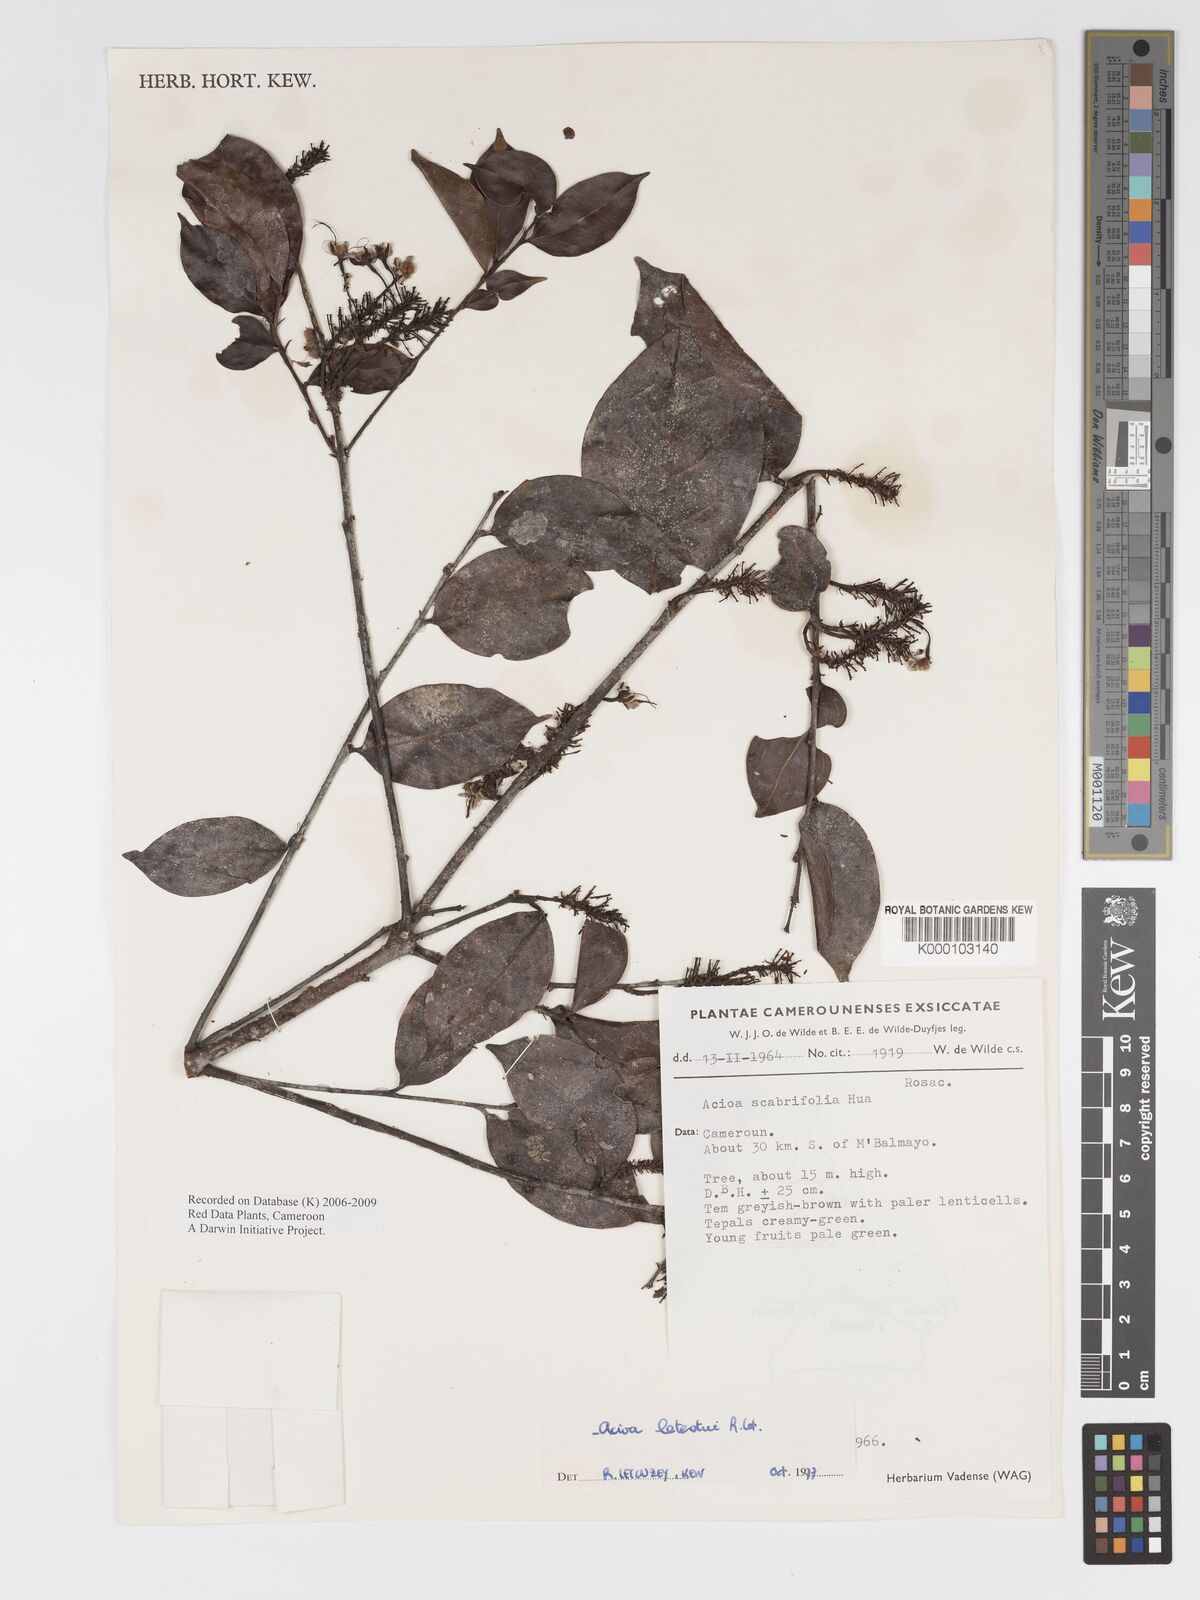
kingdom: Plantae
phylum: Tracheophyta
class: Magnoliopsida
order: Malpighiales
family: Chrysobalanaceae
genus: Dactyladenia
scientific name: Dactyladenia letestui
